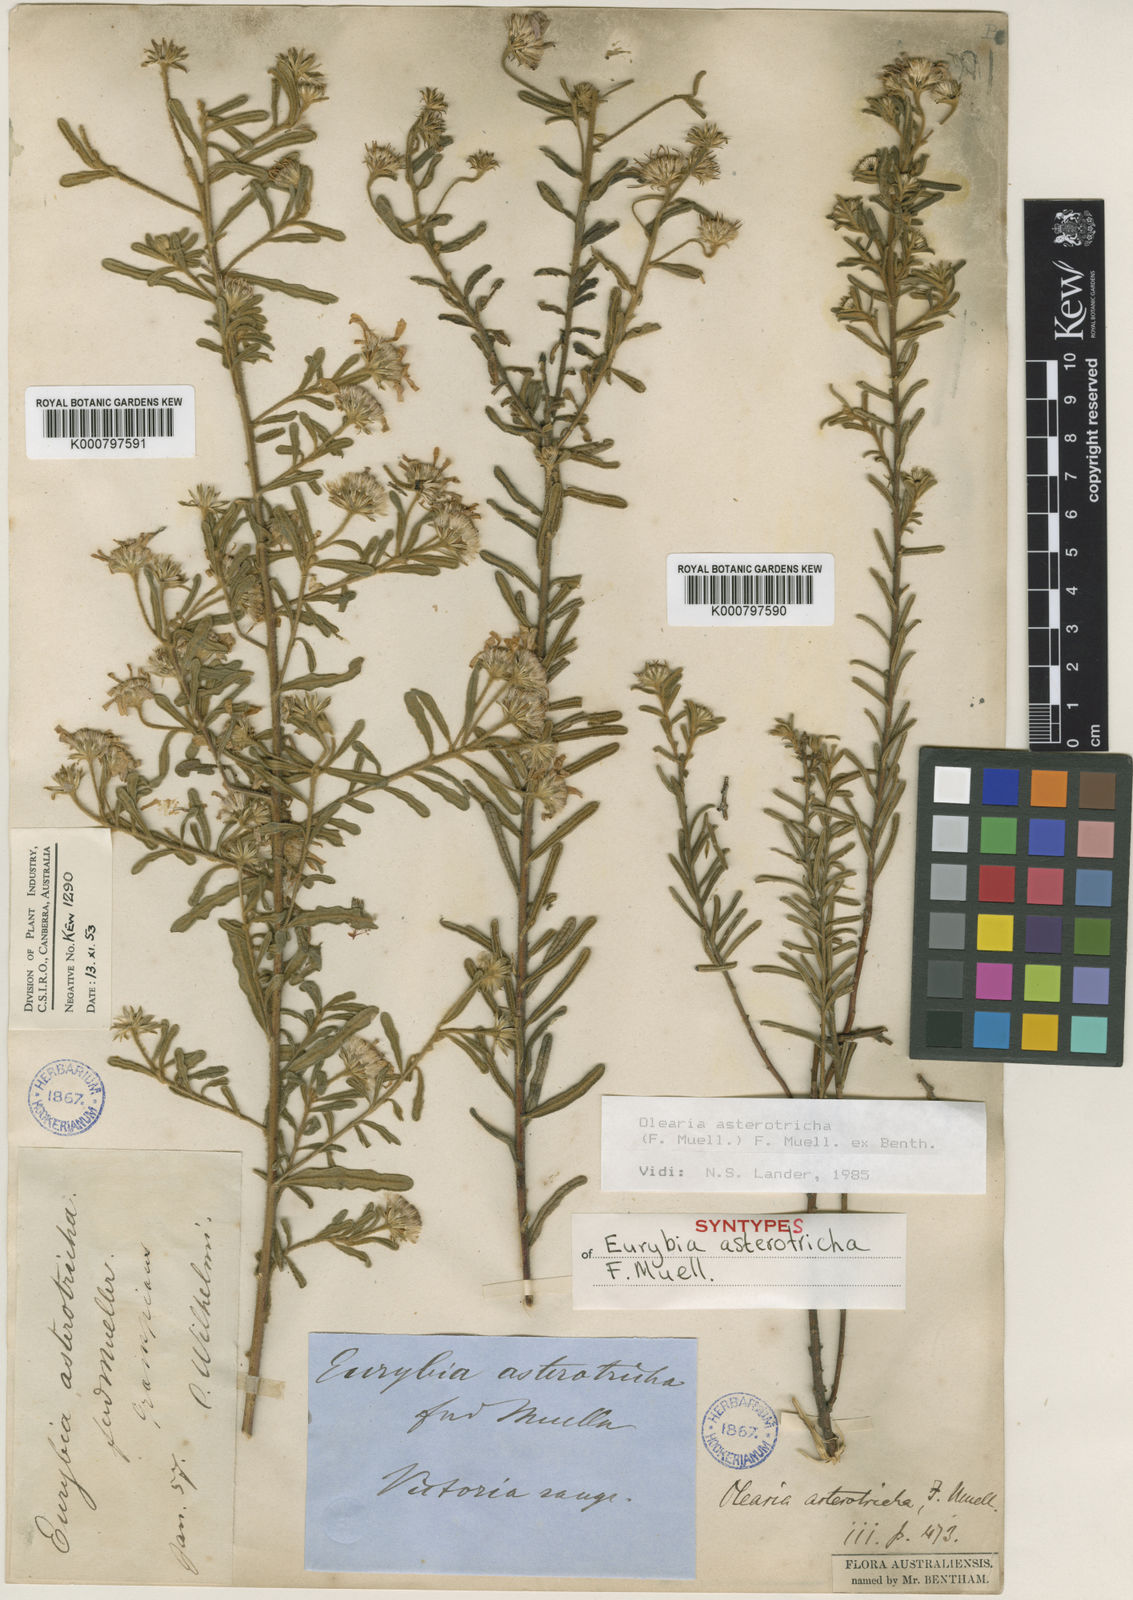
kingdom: Plantae
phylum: Tracheophyta
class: Magnoliopsida
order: Asterales
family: Asteraceae
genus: Olearia
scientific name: Olearia asterotricha
